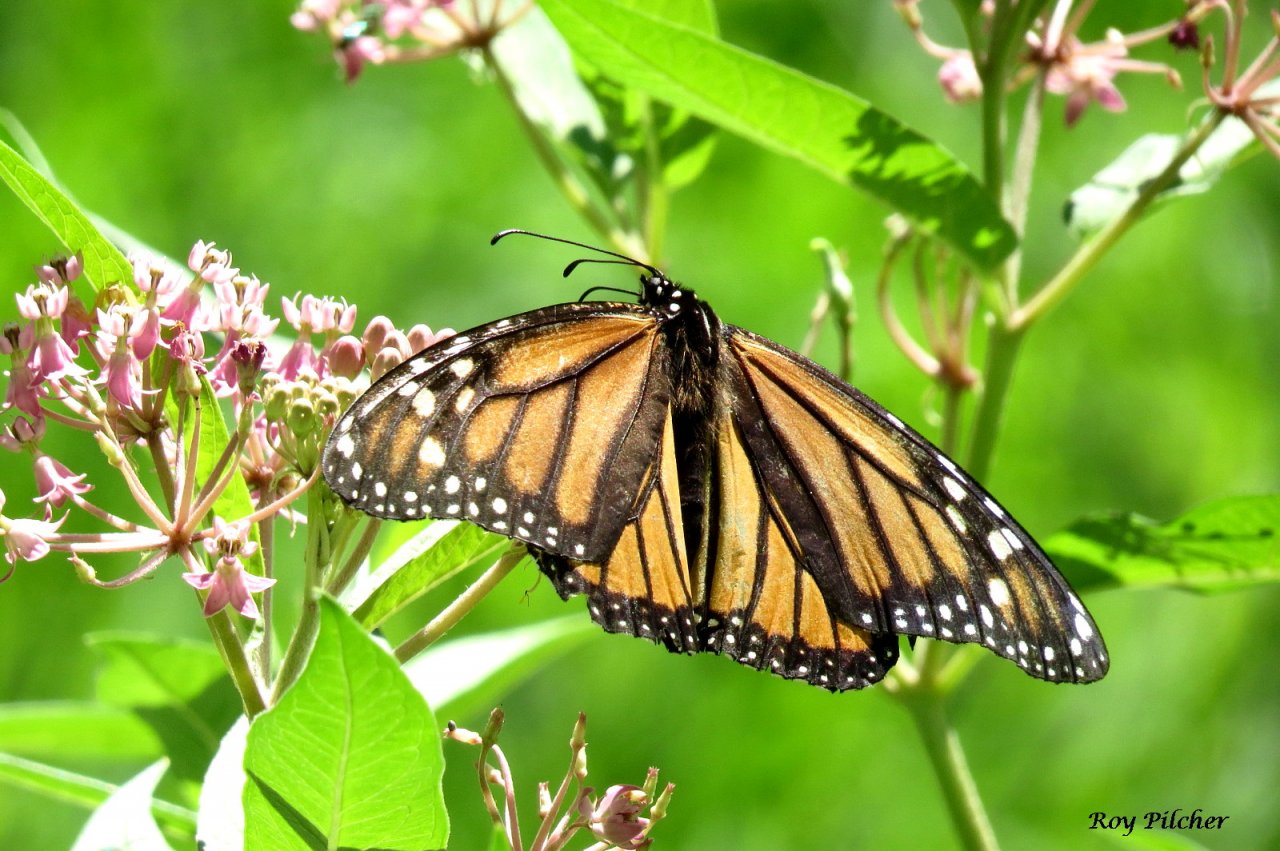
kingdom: Animalia
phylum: Arthropoda
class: Insecta
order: Lepidoptera
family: Nymphalidae
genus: Danaus
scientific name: Danaus plexippus
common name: Monarch
